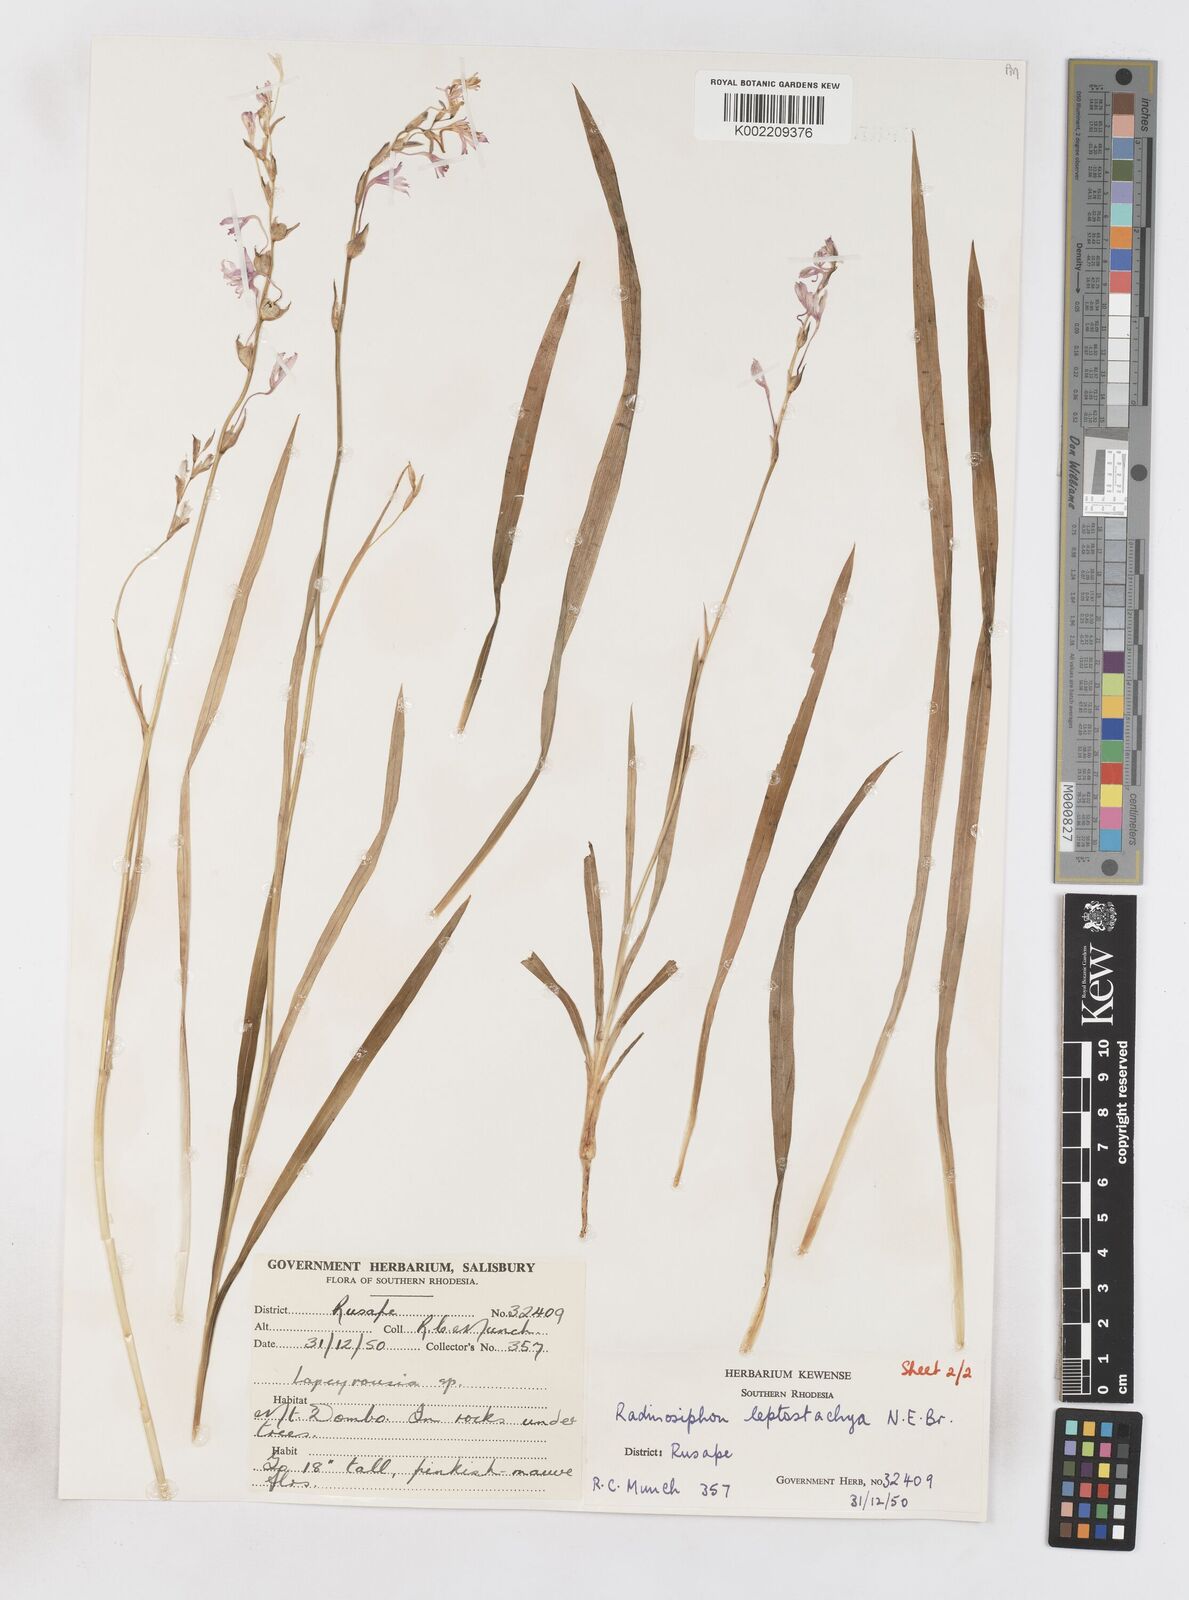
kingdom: Plantae
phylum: Tracheophyta
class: Liliopsida
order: Asparagales
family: Iridaceae
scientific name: Iridaceae
